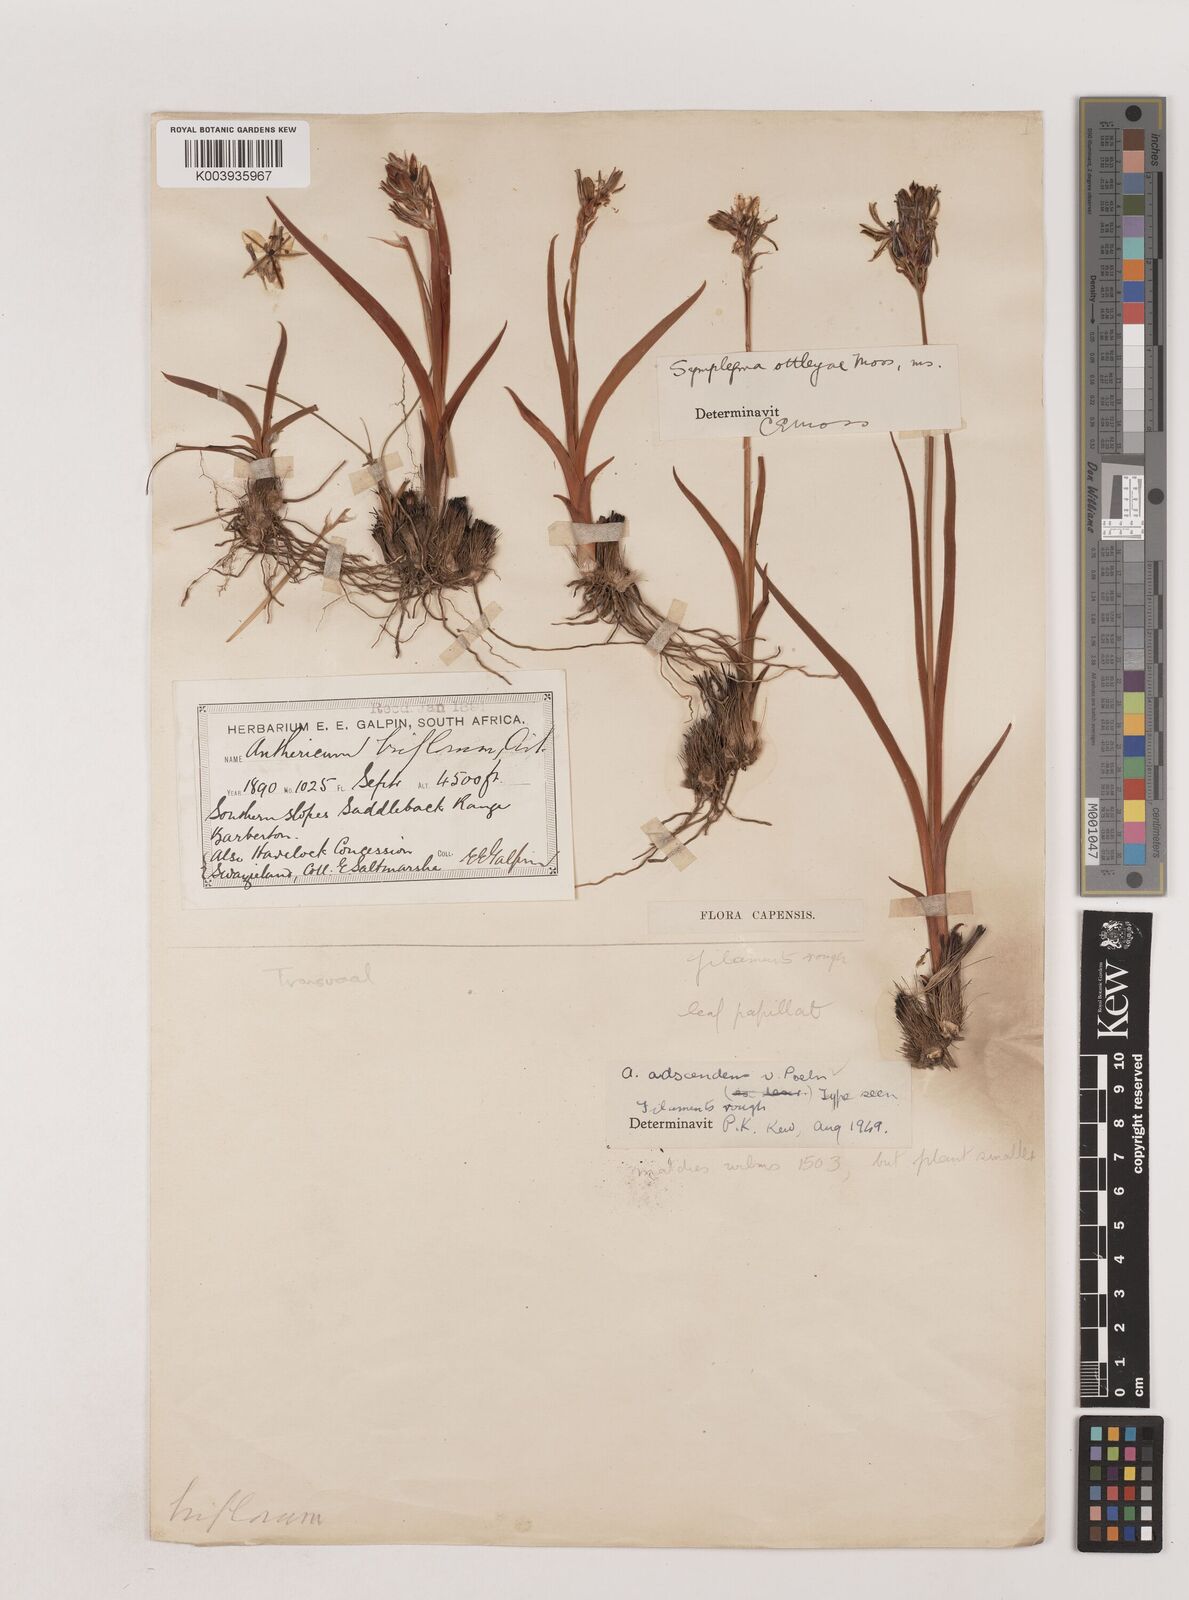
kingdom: Plantae
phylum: Tracheophyta
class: Liliopsida
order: Asparagales
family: Asparagaceae
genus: Chlorophytum
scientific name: Chlorophytum cooperi
